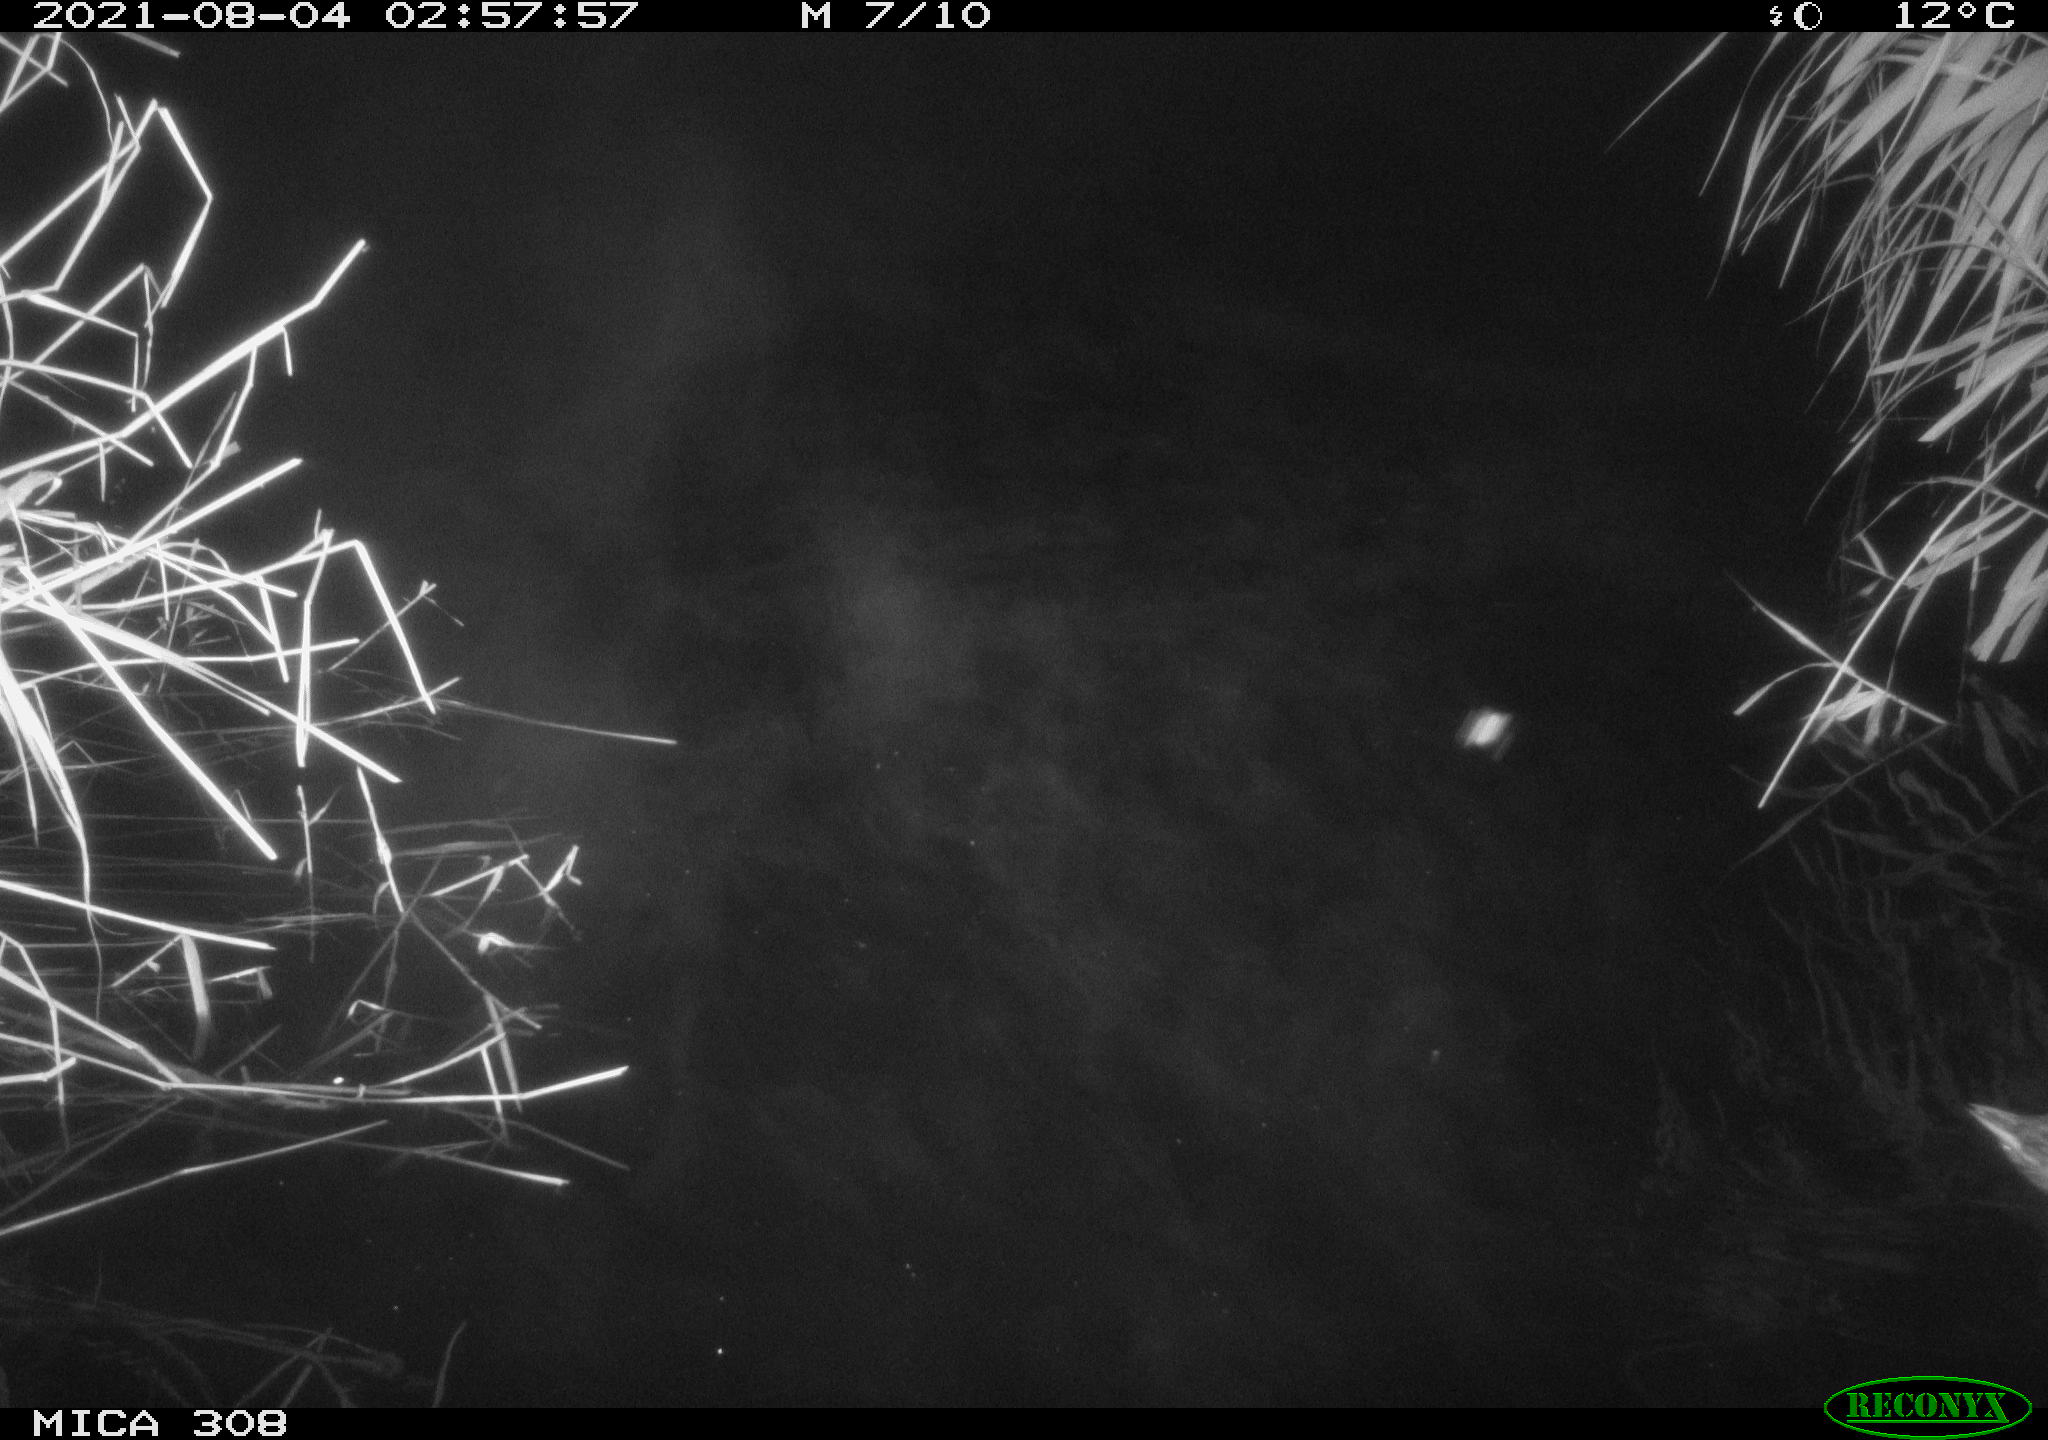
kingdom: Animalia
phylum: Chordata
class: Aves
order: Anseriformes
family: Anatidae
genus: Anas
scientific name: Anas platyrhynchos
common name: Mallard
